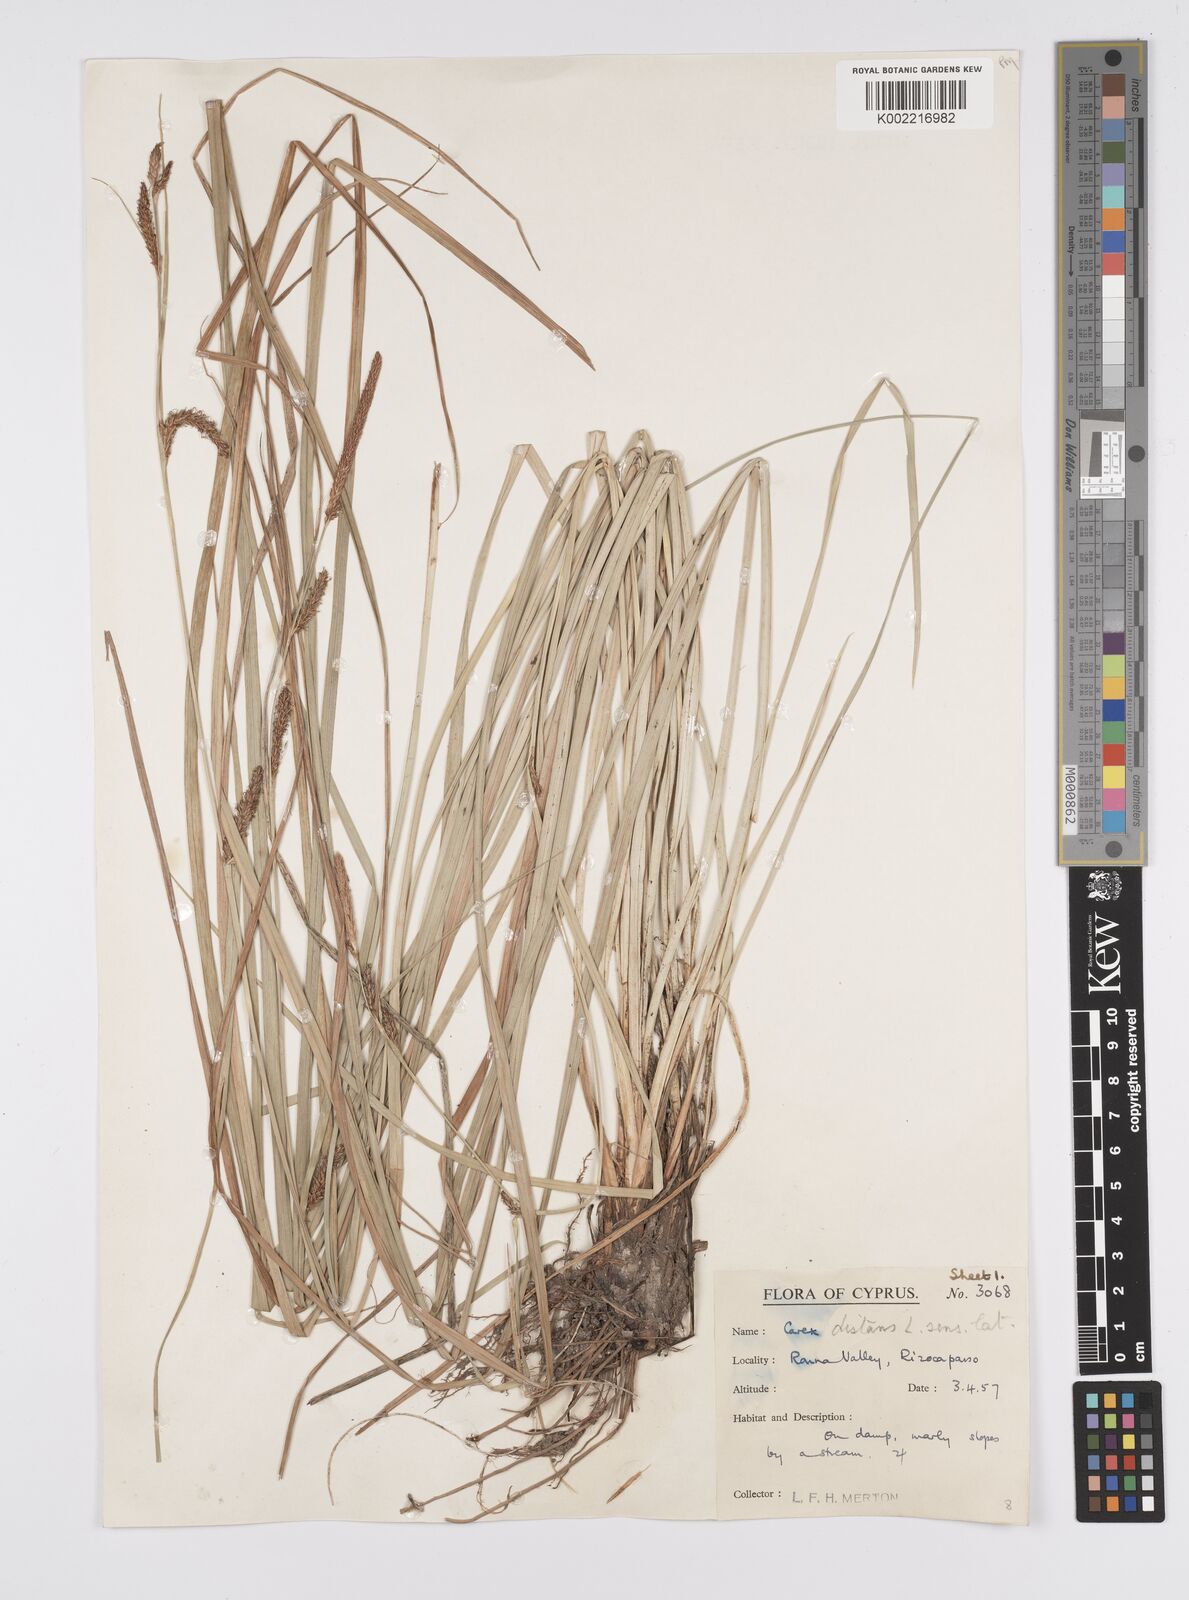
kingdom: Plantae
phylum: Tracheophyta
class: Liliopsida
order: Poales
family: Cyperaceae
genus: Carex
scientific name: Carex distans
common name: Distant sedge
